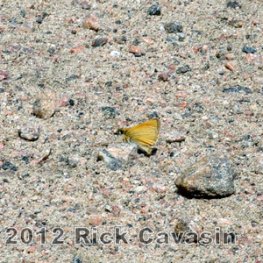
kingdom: Animalia
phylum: Arthropoda
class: Insecta
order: Lepidoptera
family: Hesperiidae
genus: Thymelicus
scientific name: Thymelicus lineola
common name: European Skipper
